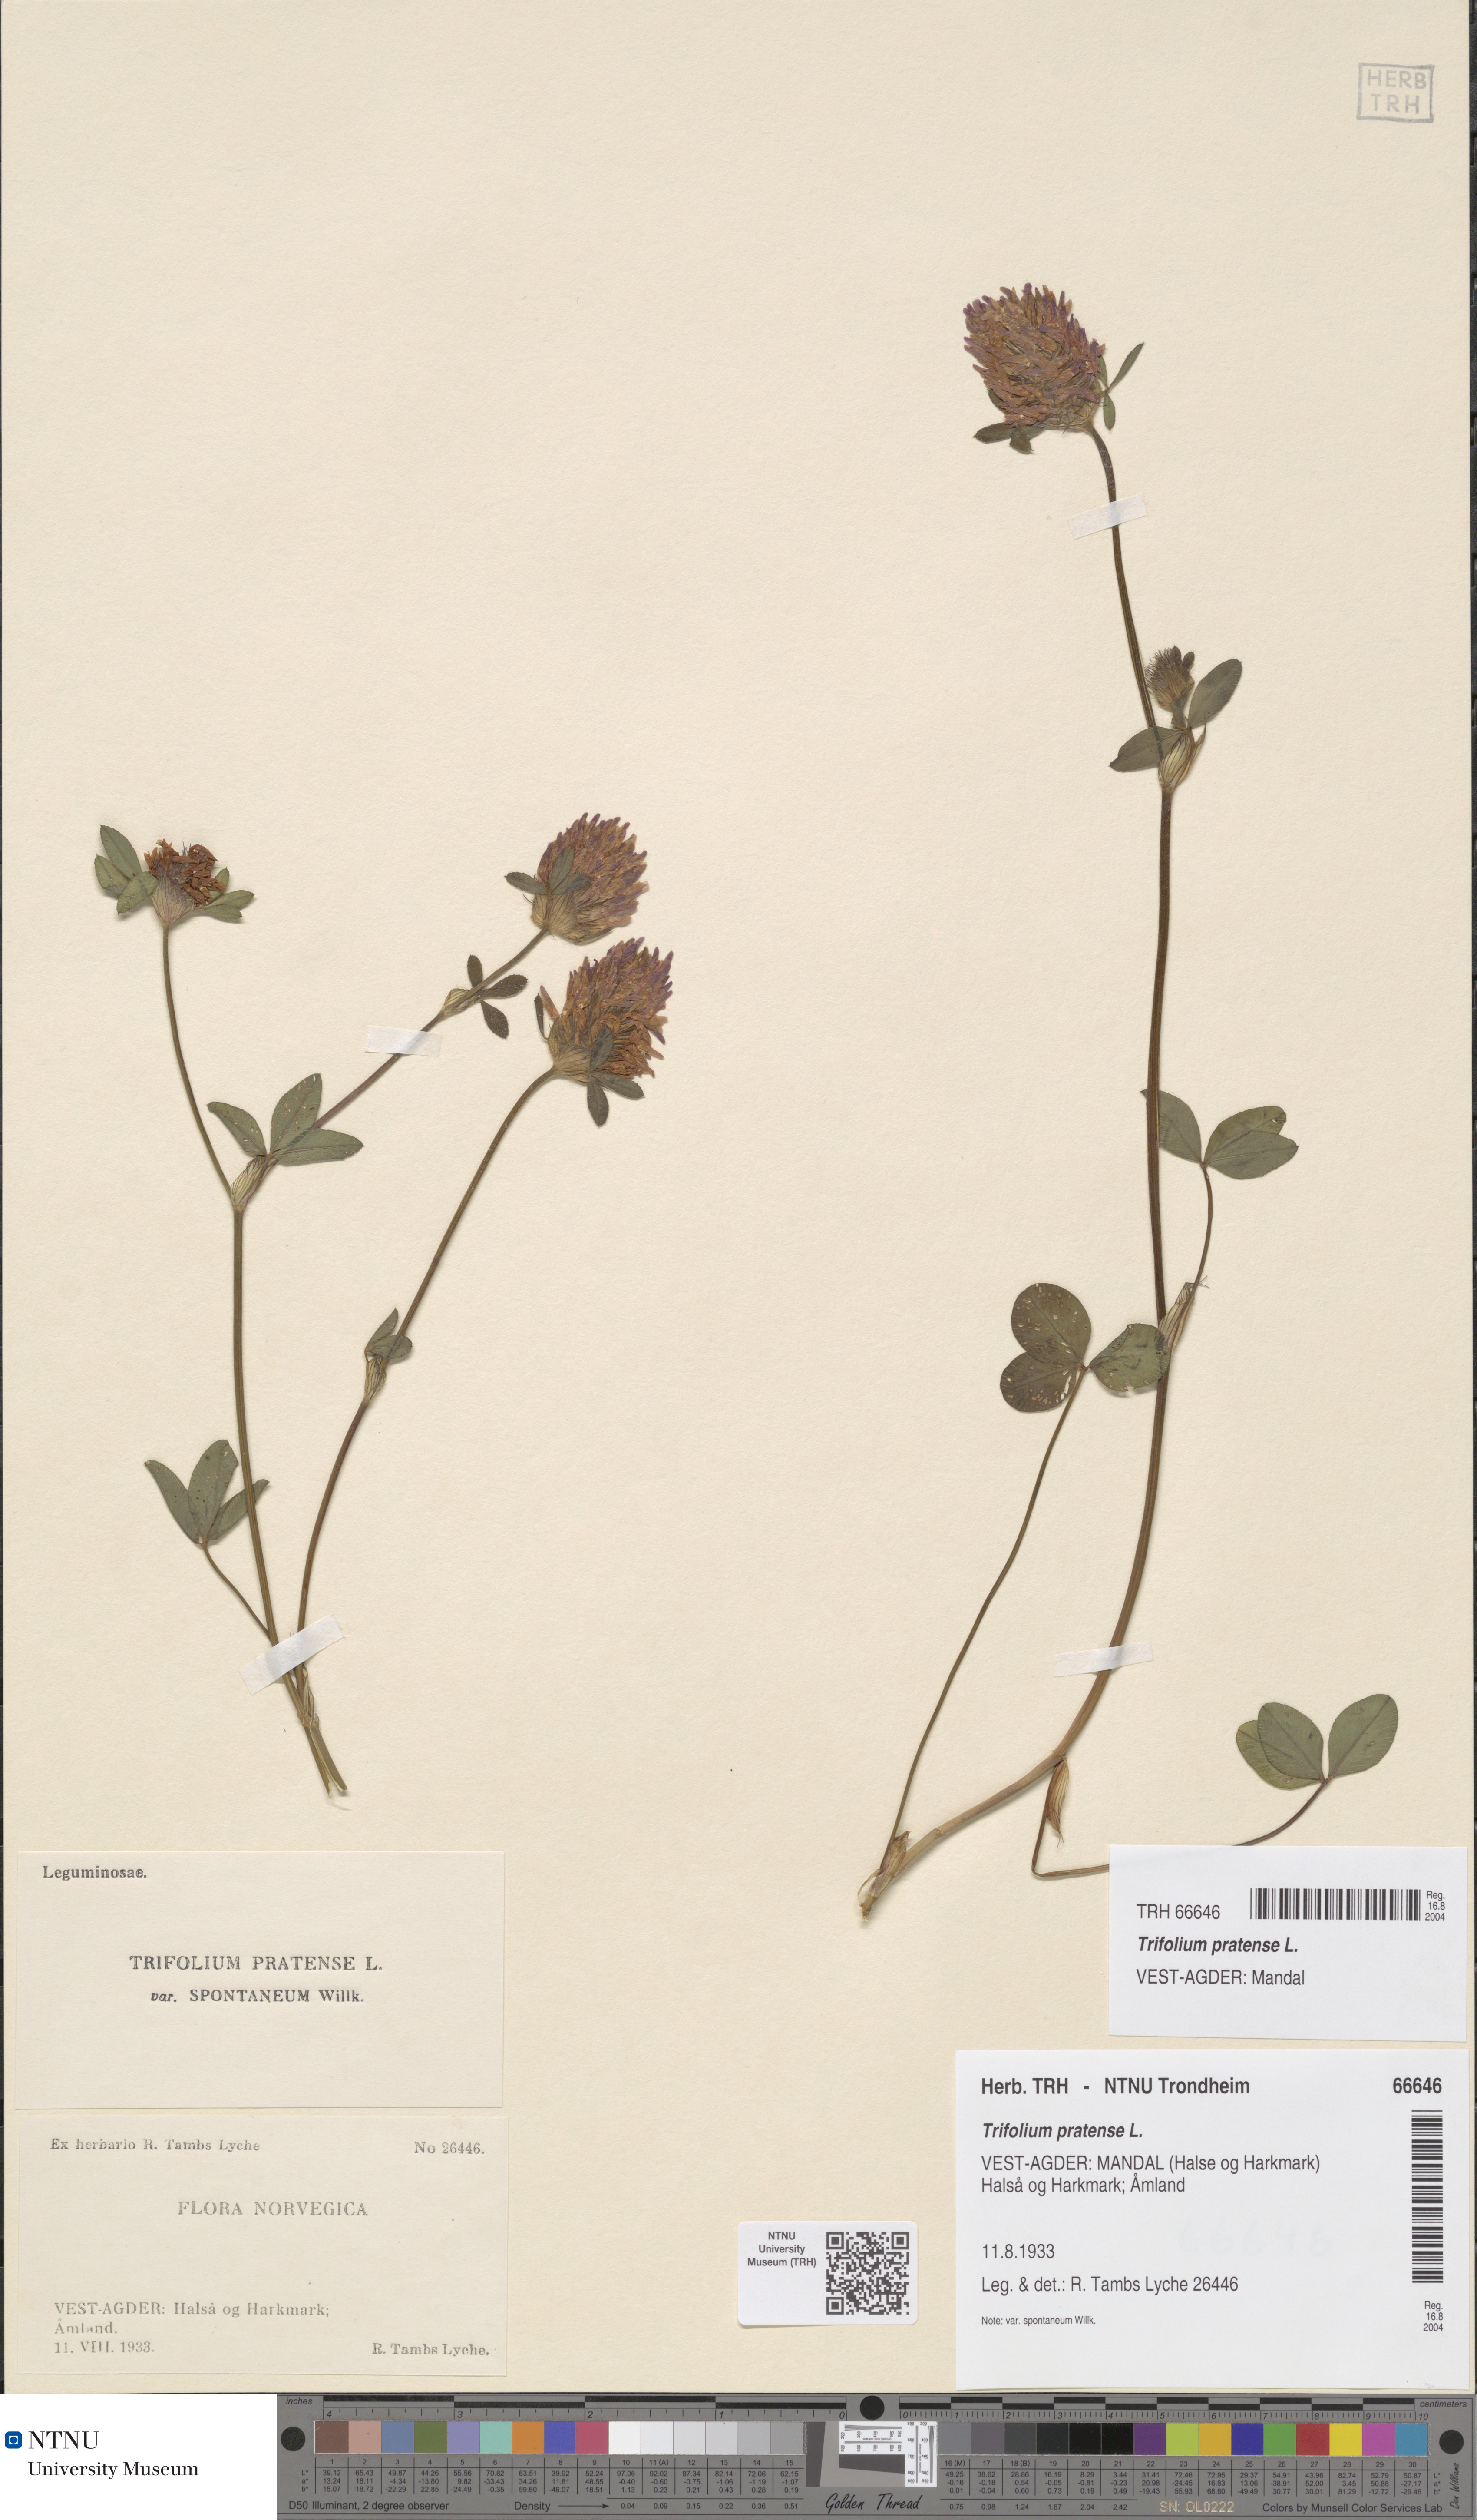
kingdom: Plantae
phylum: Tracheophyta
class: Magnoliopsida
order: Fabales
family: Fabaceae
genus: Trifolium
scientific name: Trifolium pratense
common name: Red clover
